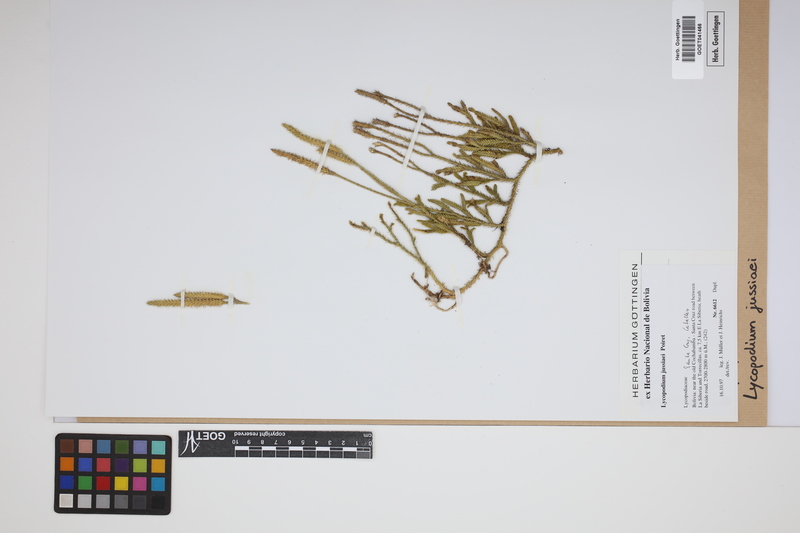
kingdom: Plantae
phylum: Tracheophyta
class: Lycopodiopsida
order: Lycopodiales
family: Lycopodiaceae
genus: Diphasium
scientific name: Diphasium jussiaei
